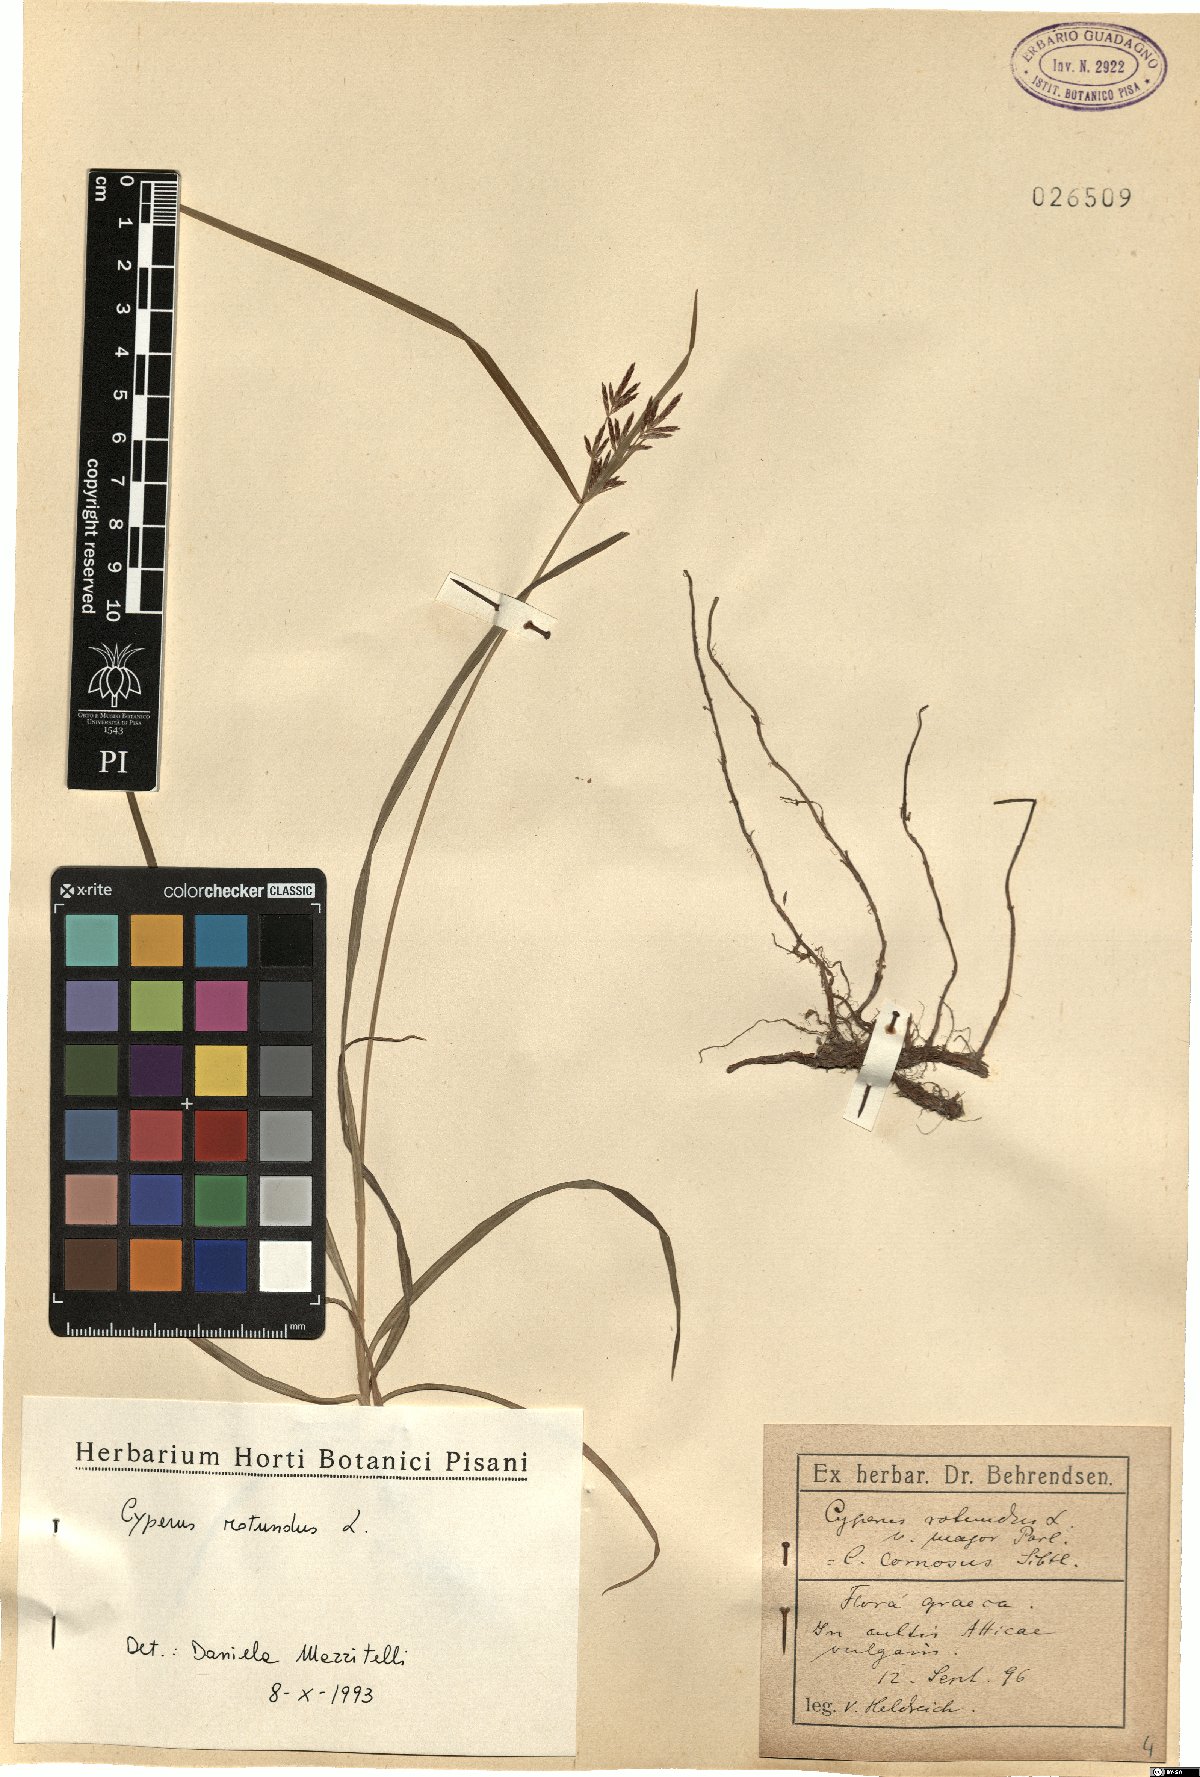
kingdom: Plantae
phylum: Tracheophyta
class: Liliopsida
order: Poales
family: Cyperaceae
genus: Cyperus
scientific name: Cyperus rotundus
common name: Nutgrass
